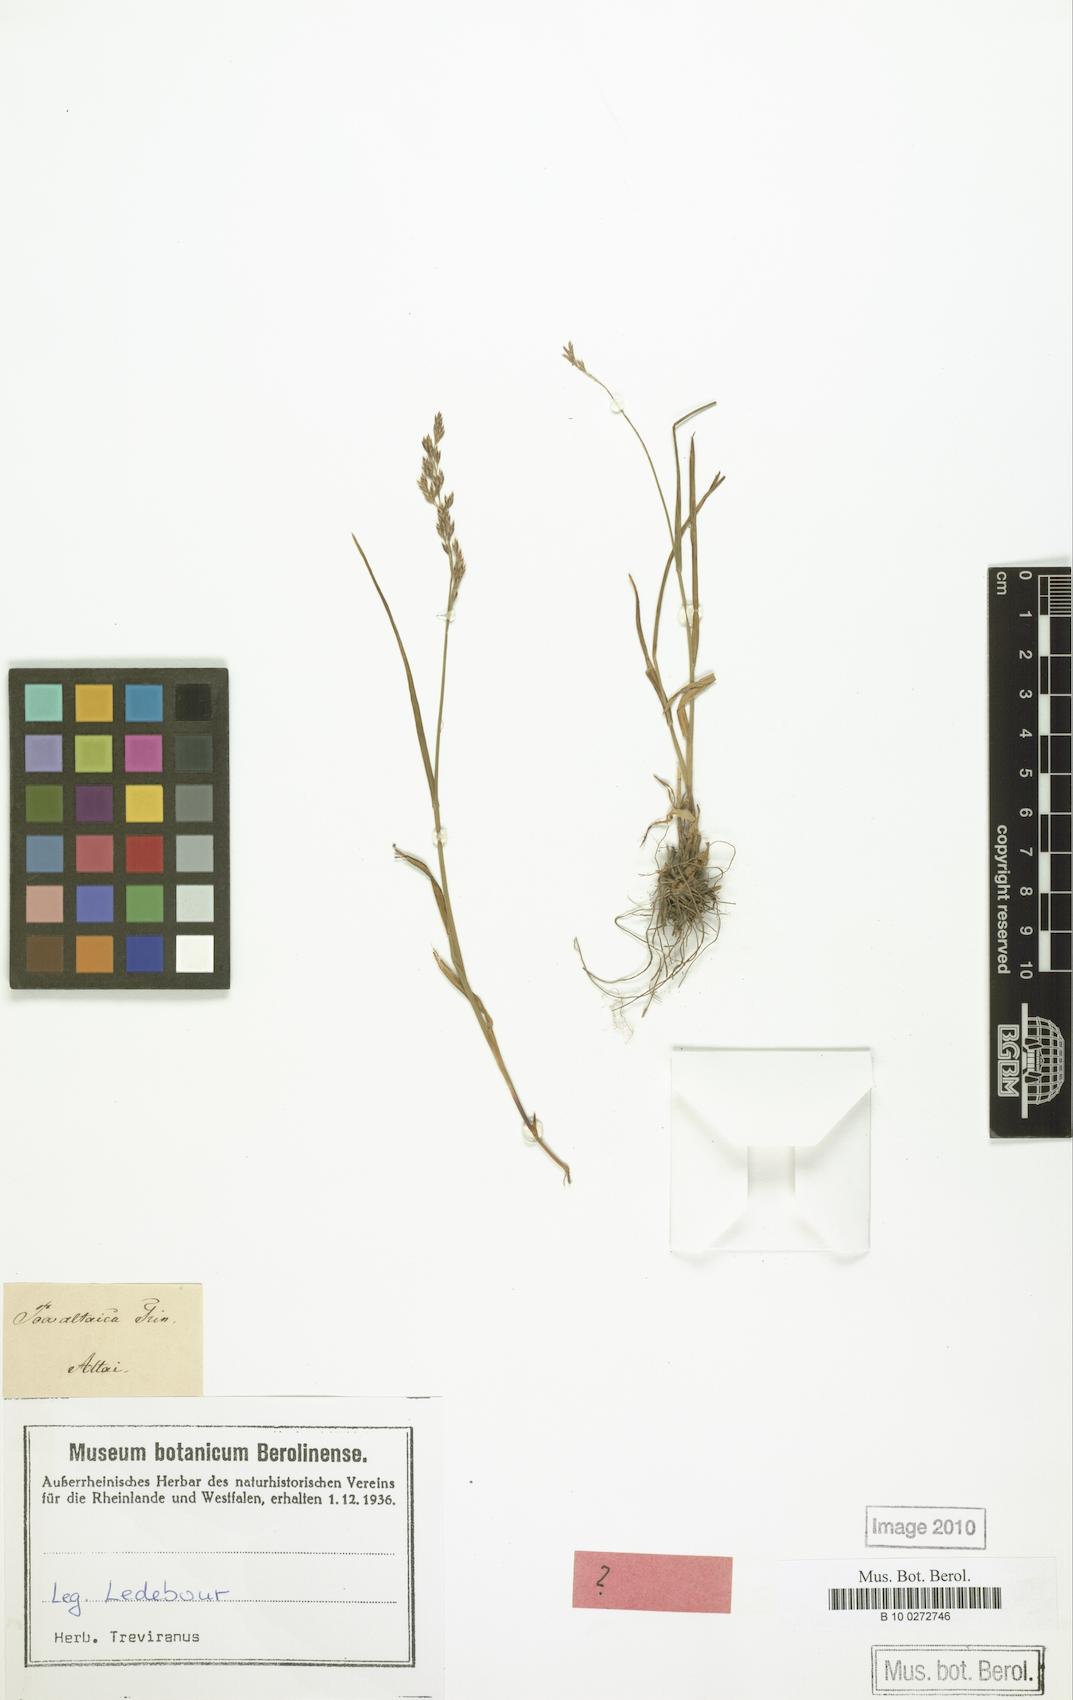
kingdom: Plantae
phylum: Tracheophyta
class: Liliopsida
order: Poales
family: Poaceae
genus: Poa
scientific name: Poa glauca
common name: Glaucous bluegrass
